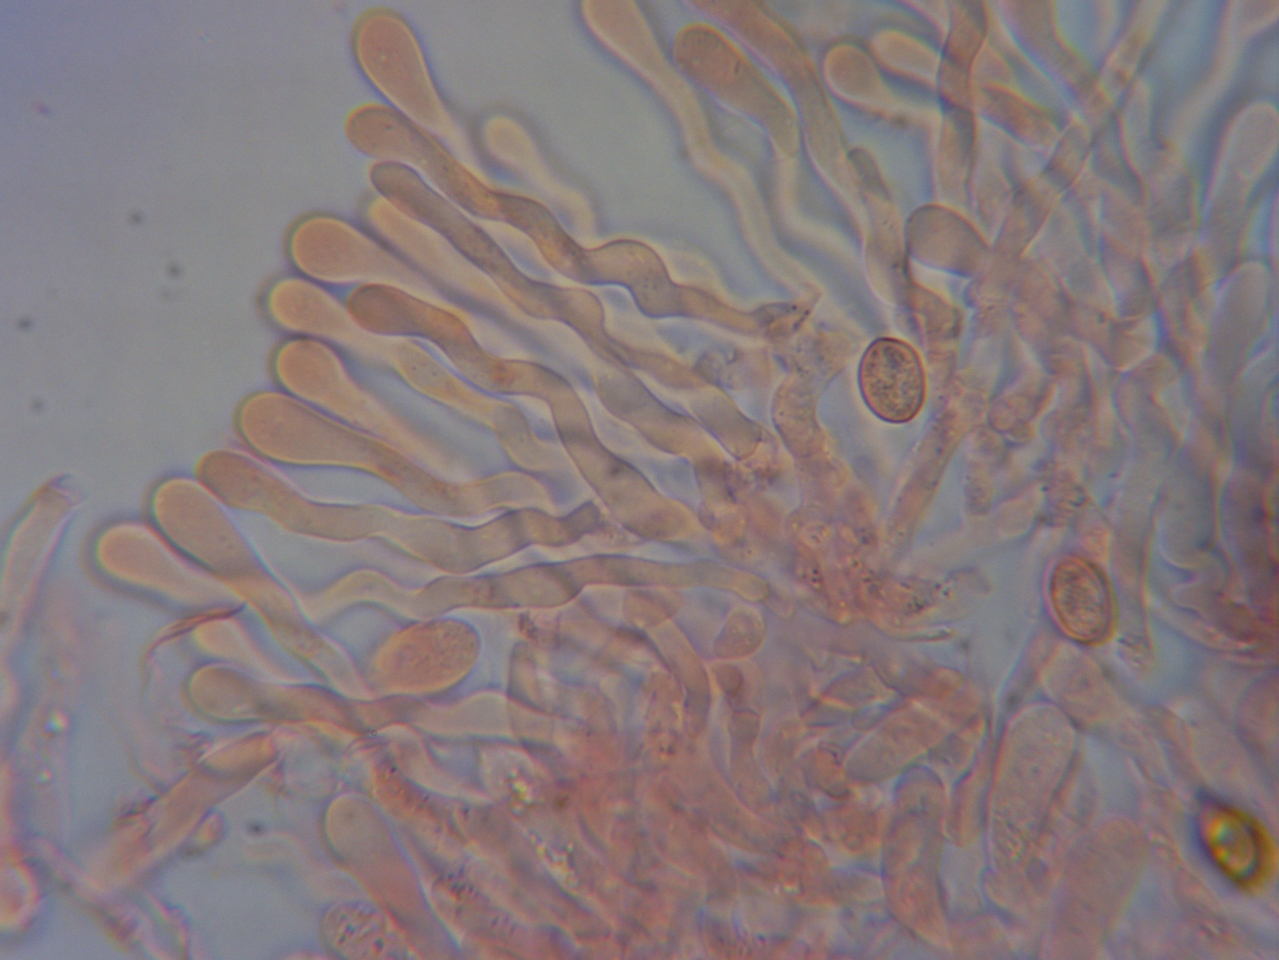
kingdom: Fungi
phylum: Basidiomycota
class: Agaricomycetes
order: Agaricales
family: Crepidotaceae
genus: Simocybe
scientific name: Simocybe haustellaris
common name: skæv skyggehat
